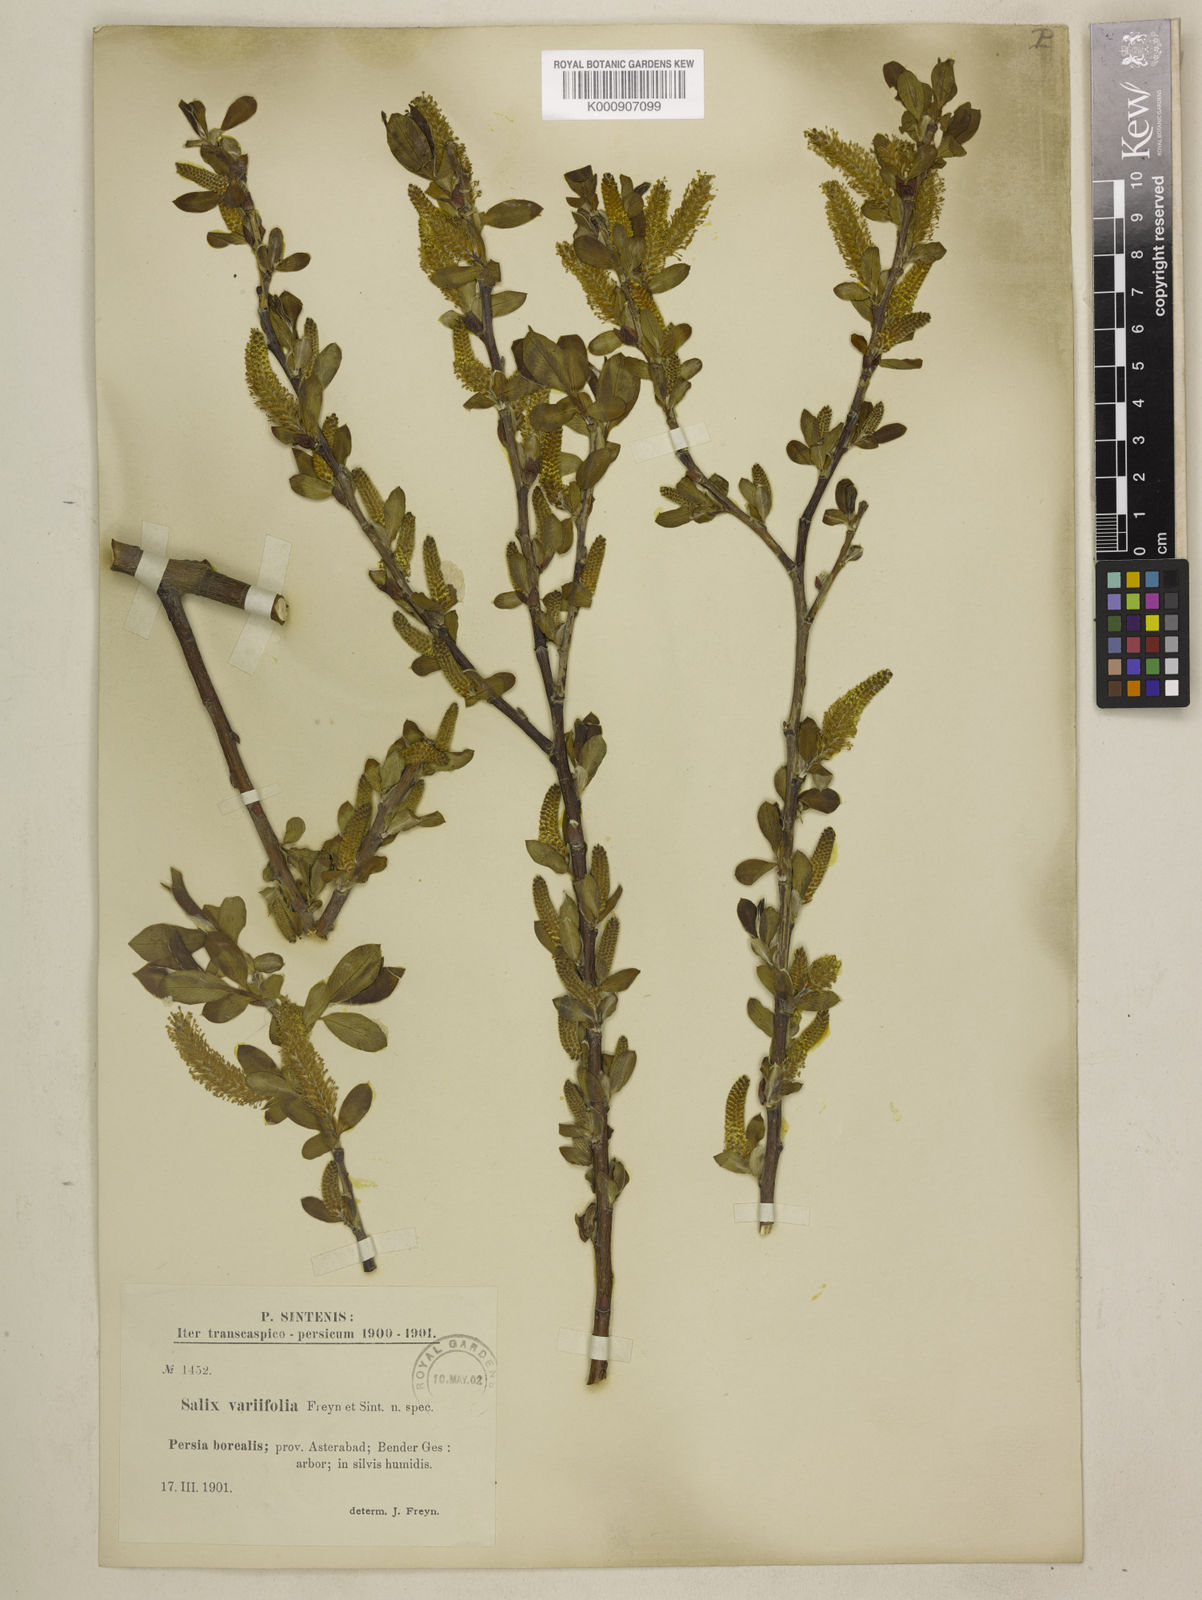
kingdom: Plantae
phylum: Tracheophyta
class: Magnoliopsida
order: Malpighiales
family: Salicaceae
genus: Salix
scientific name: Salix excelsa
